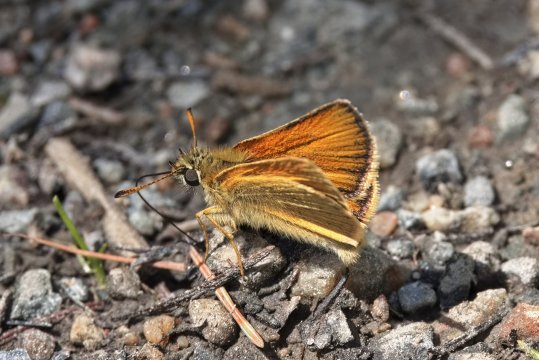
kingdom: Animalia
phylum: Arthropoda
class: Insecta
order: Lepidoptera
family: Hesperiidae
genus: Thymelicus
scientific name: Thymelicus lineola
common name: European Skipper
